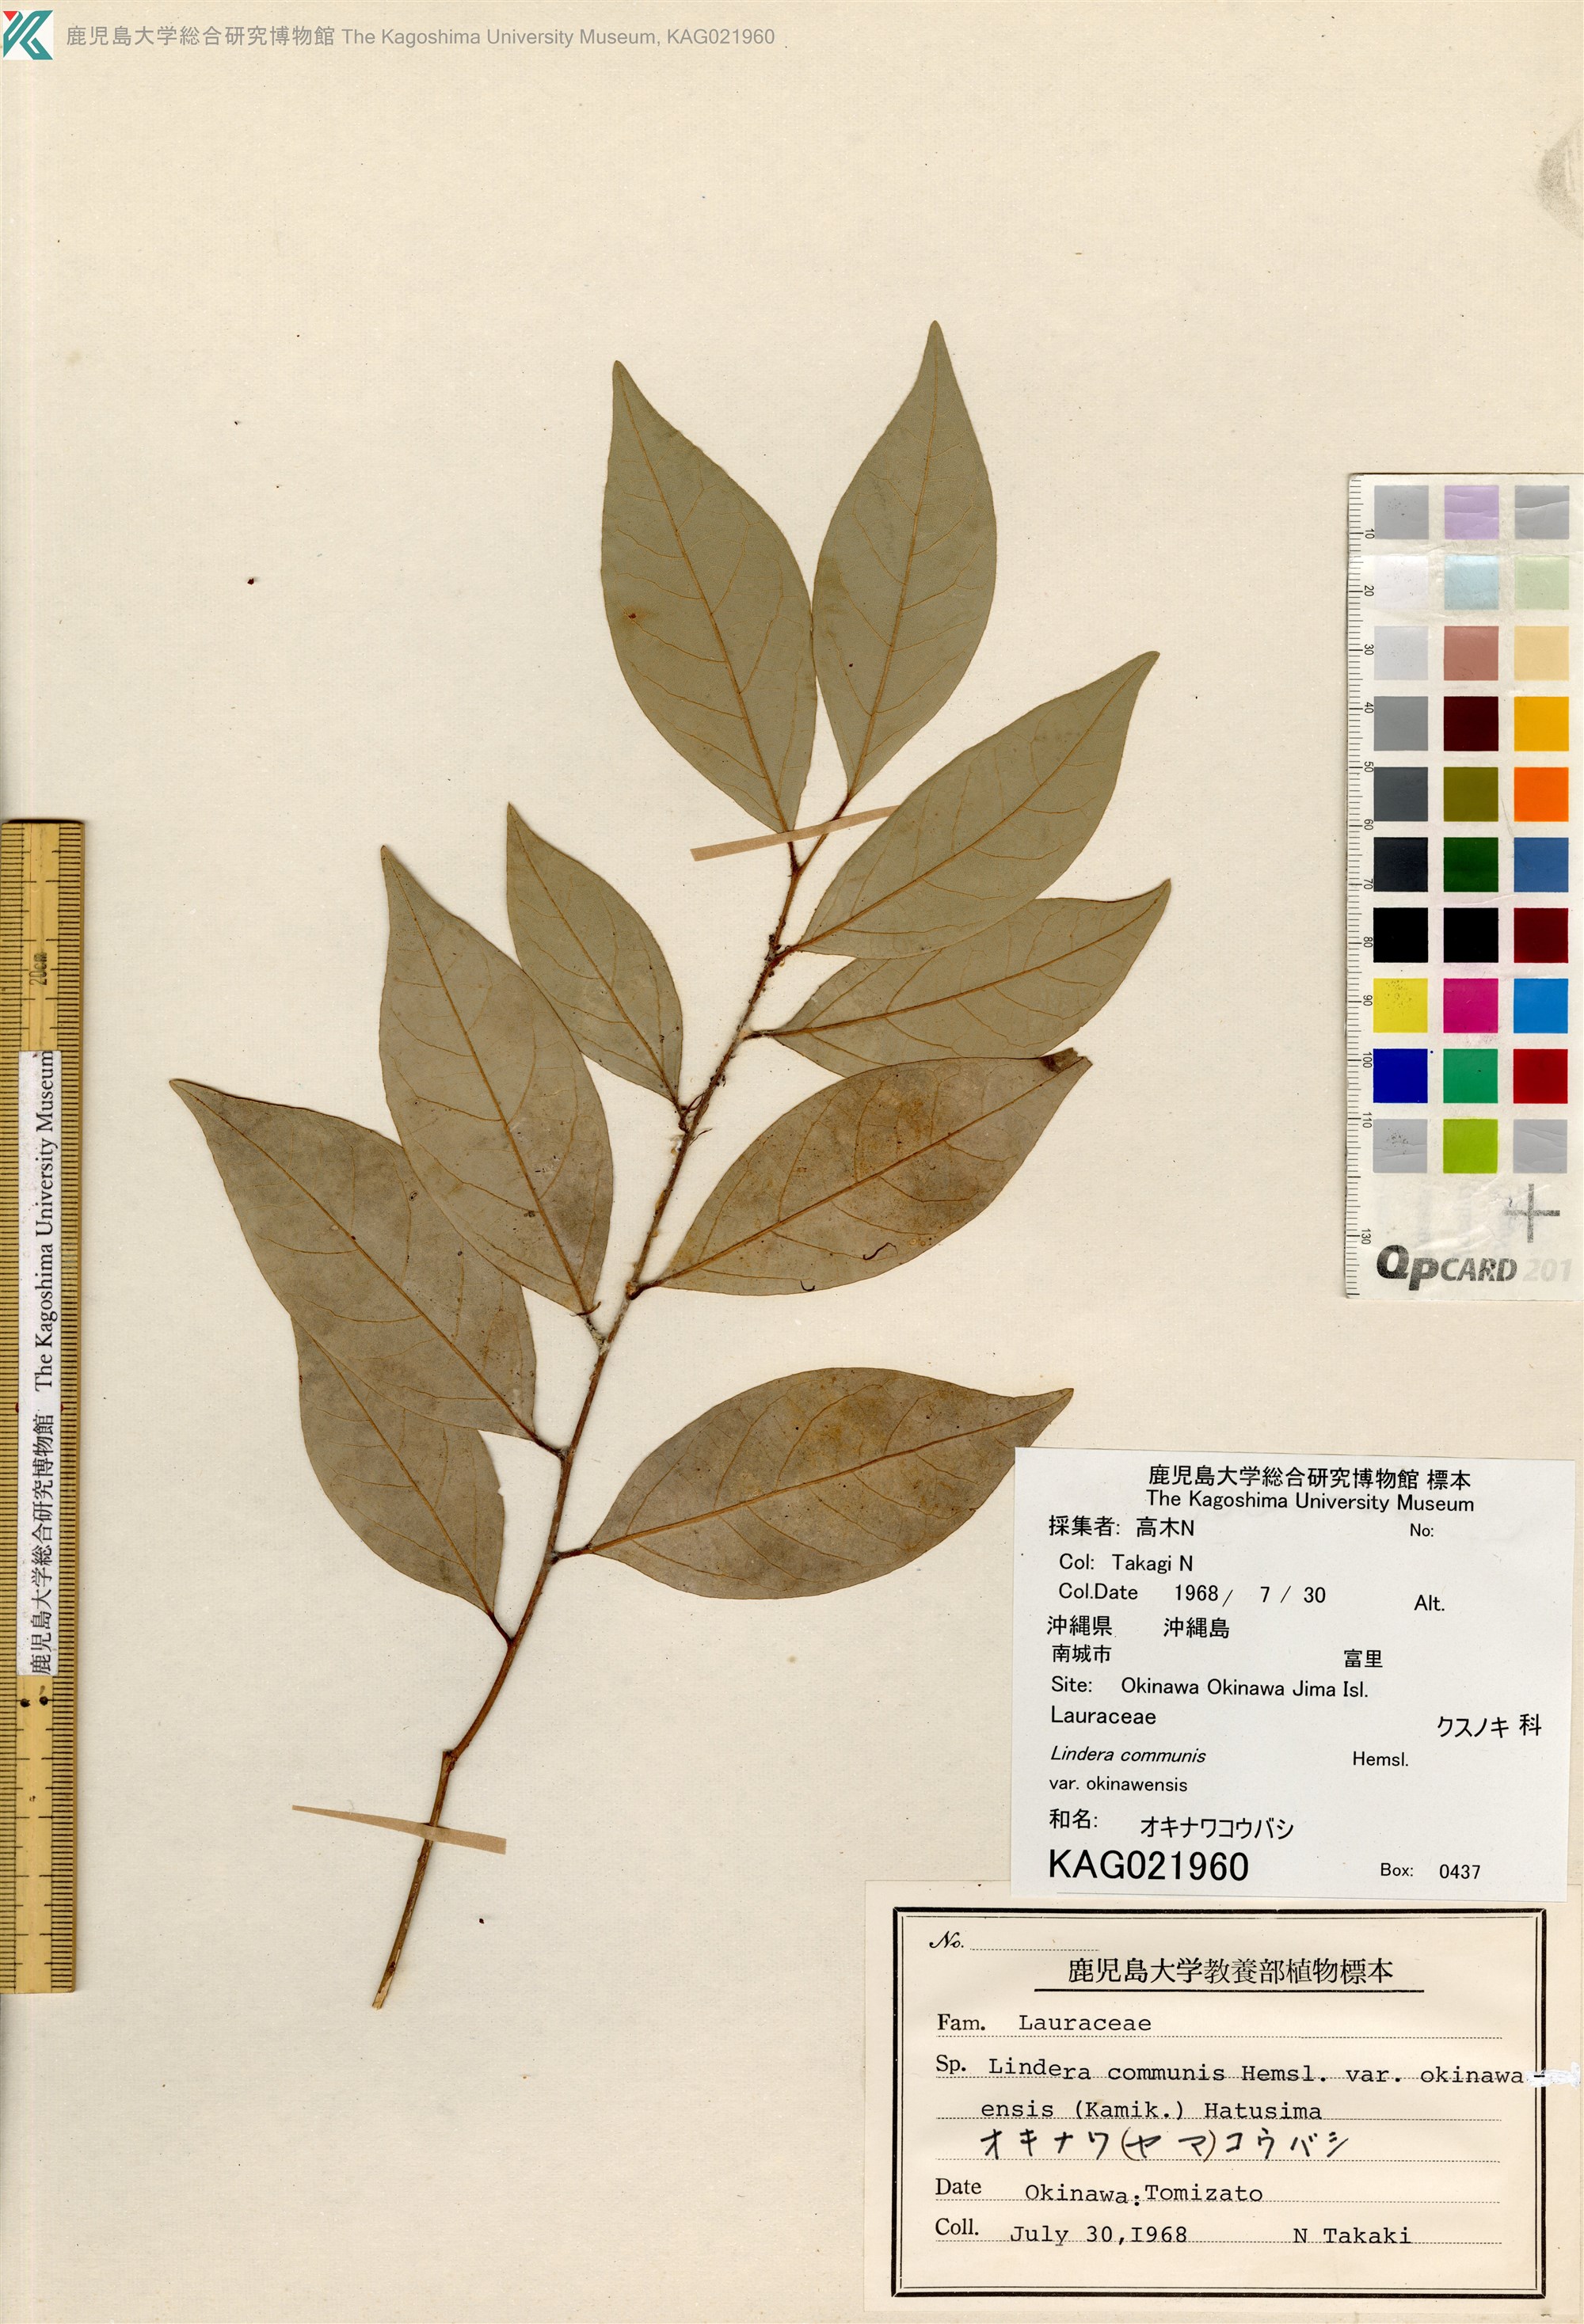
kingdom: Plantae
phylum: Tracheophyta
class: Magnoliopsida
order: Laurales
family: Lauraceae
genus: Lindera
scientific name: Lindera communis
